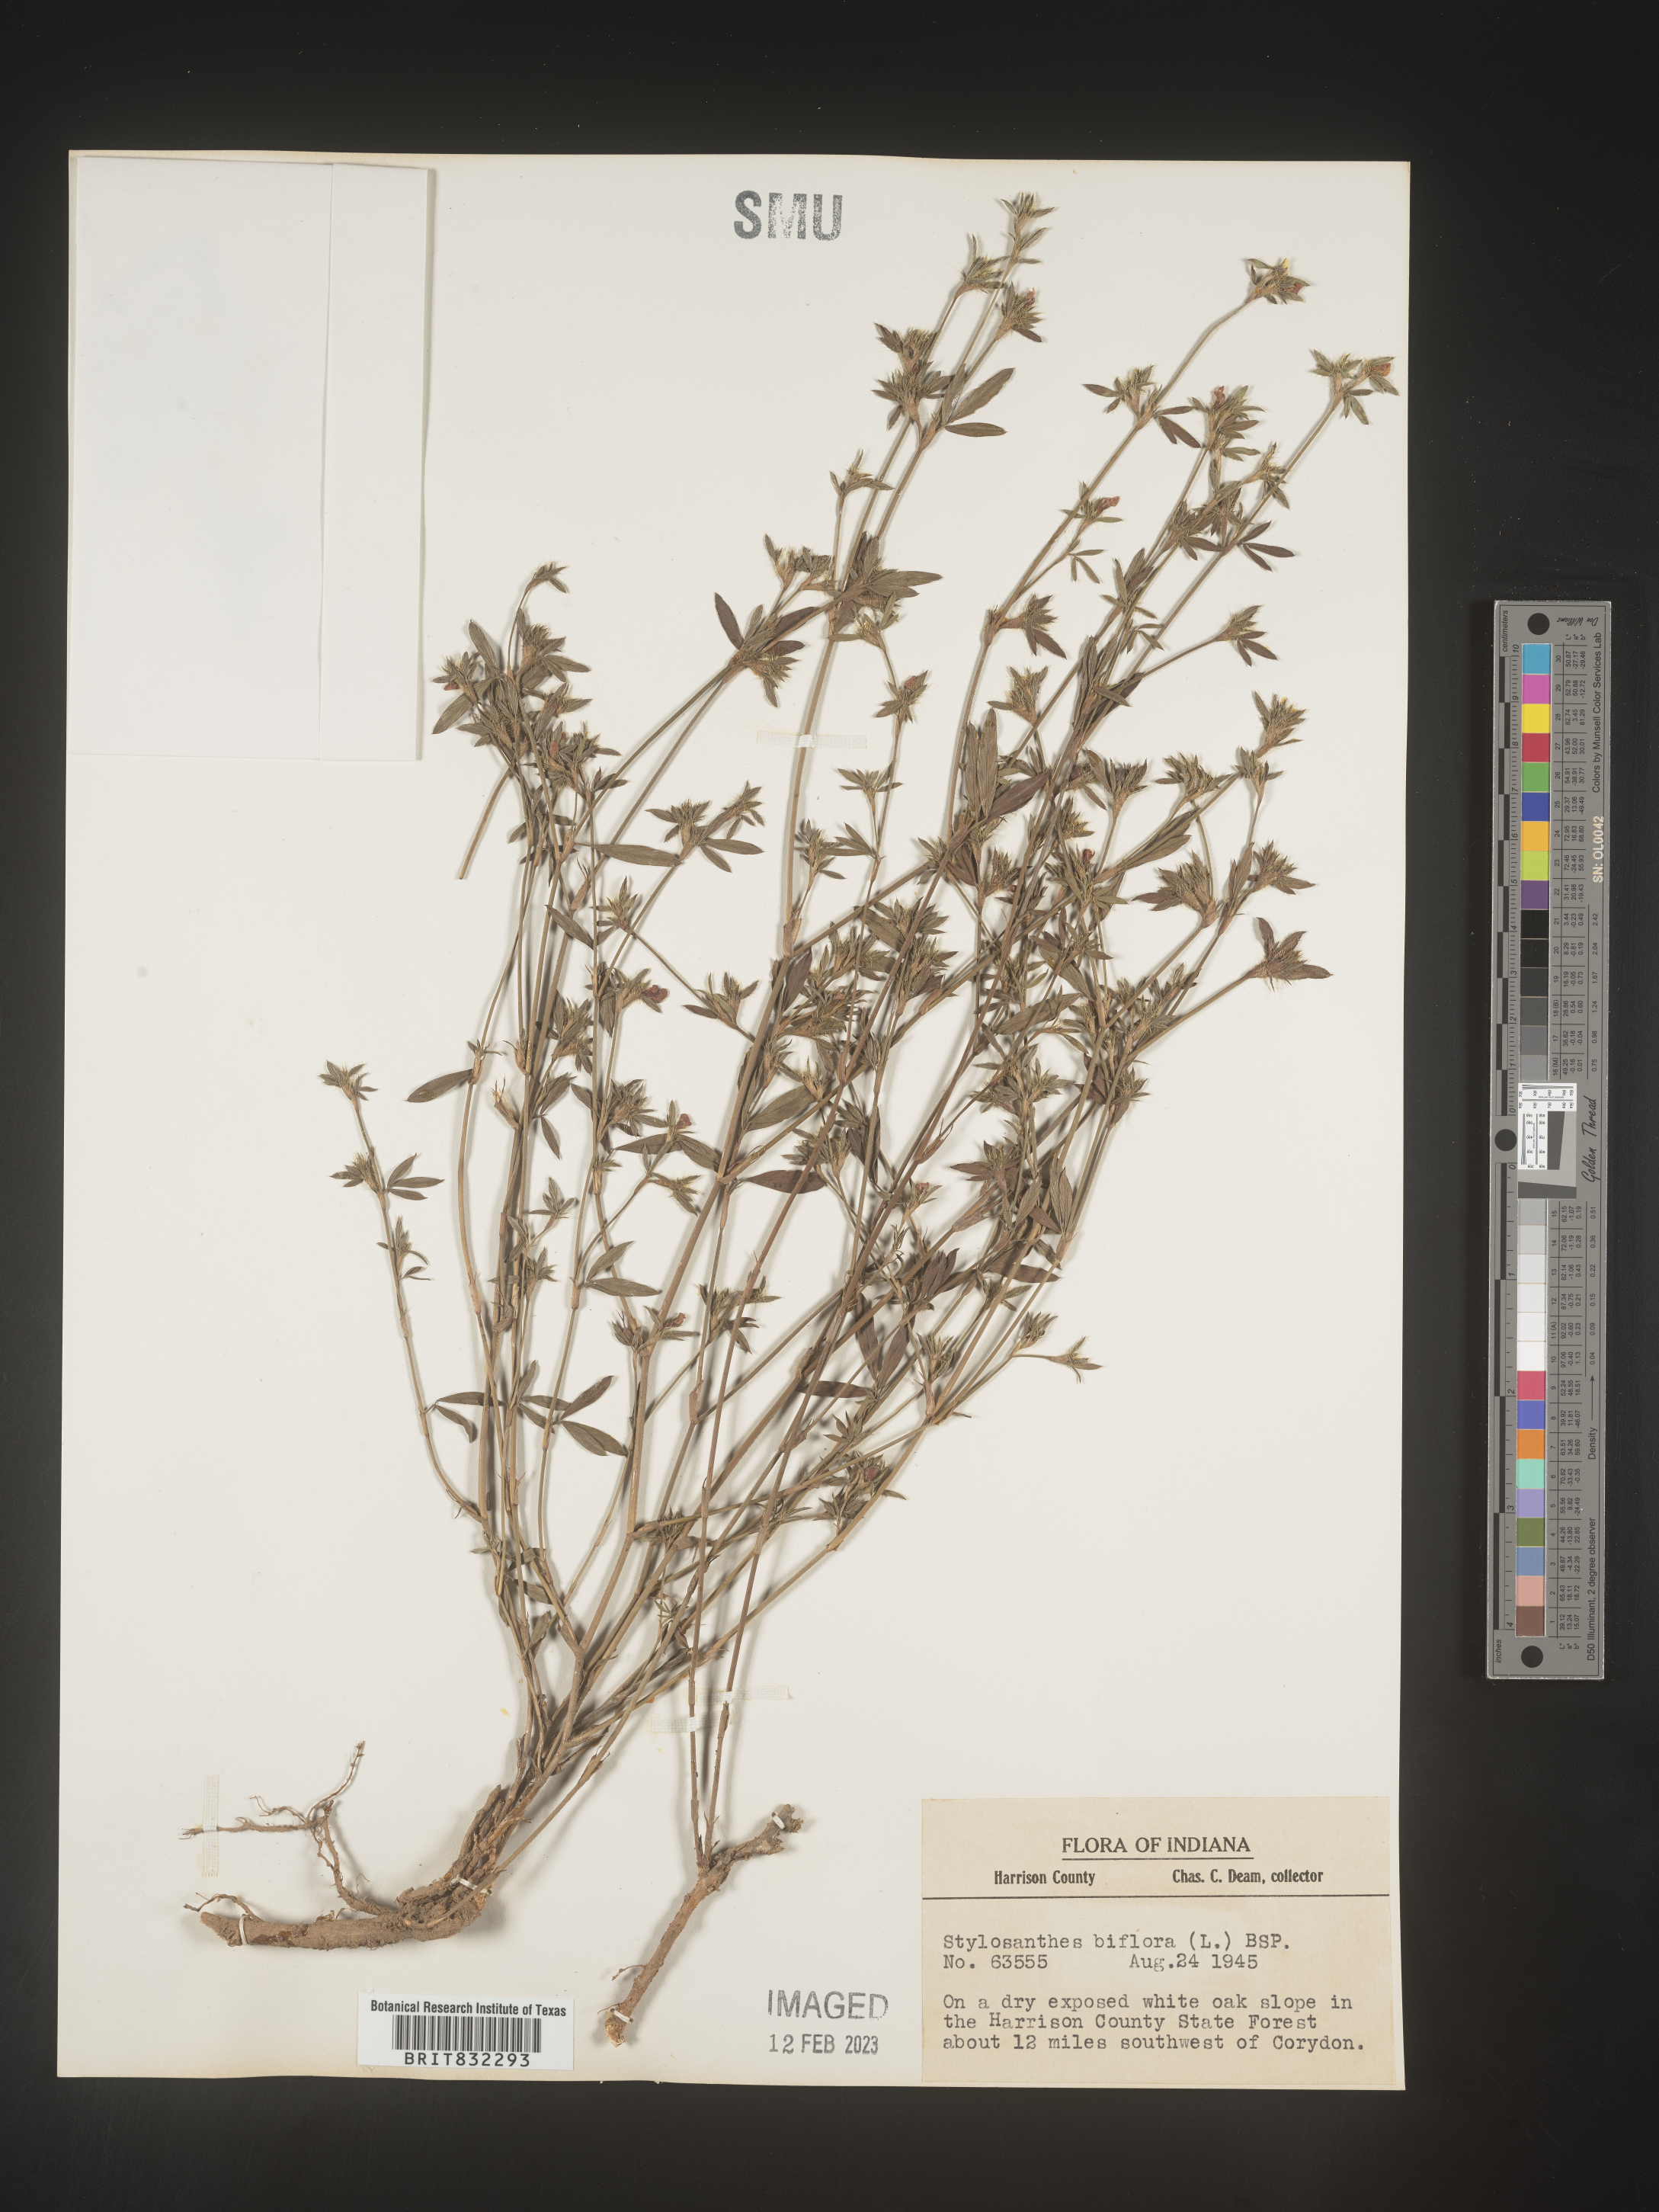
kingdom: Plantae
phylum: Tracheophyta
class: Magnoliopsida
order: Fabales
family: Fabaceae
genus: Stylosanthes
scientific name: Stylosanthes biflora
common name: Two-flower pencil-flower
